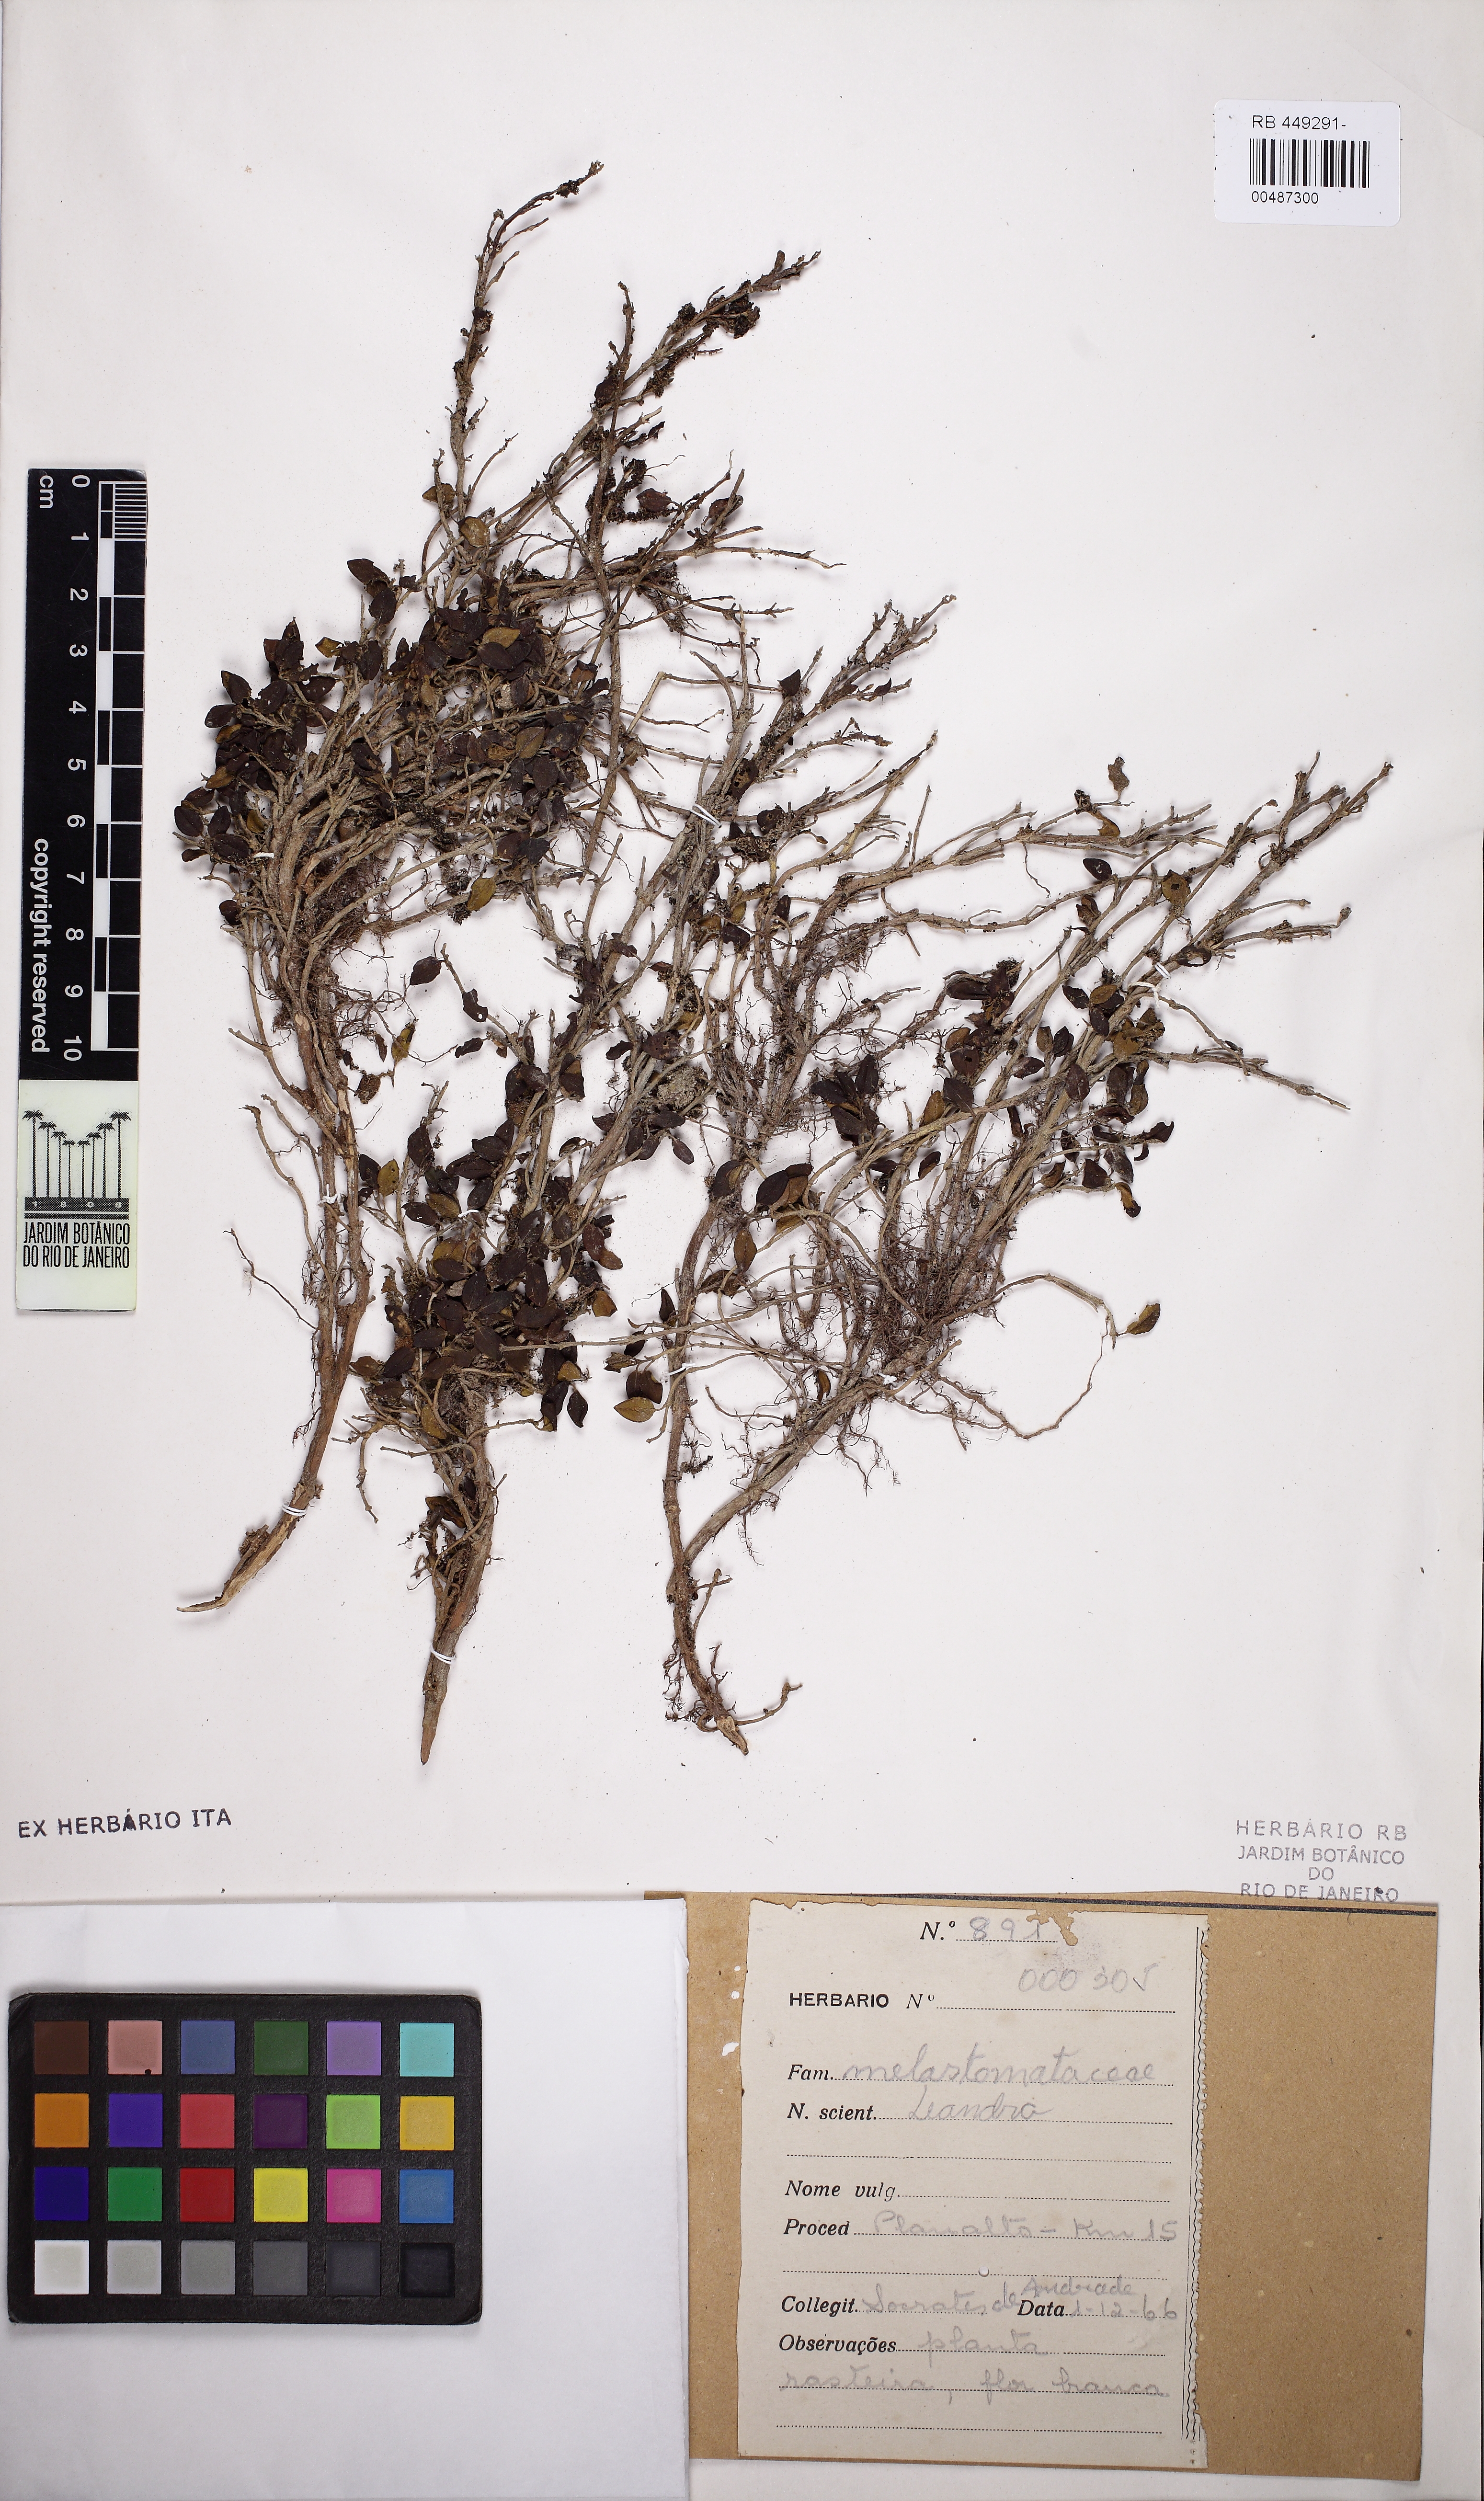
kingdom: Plantae
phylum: Tracheophyta
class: Magnoliopsida
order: Myrtales
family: Melastomataceae
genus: Miconia
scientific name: Miconia
